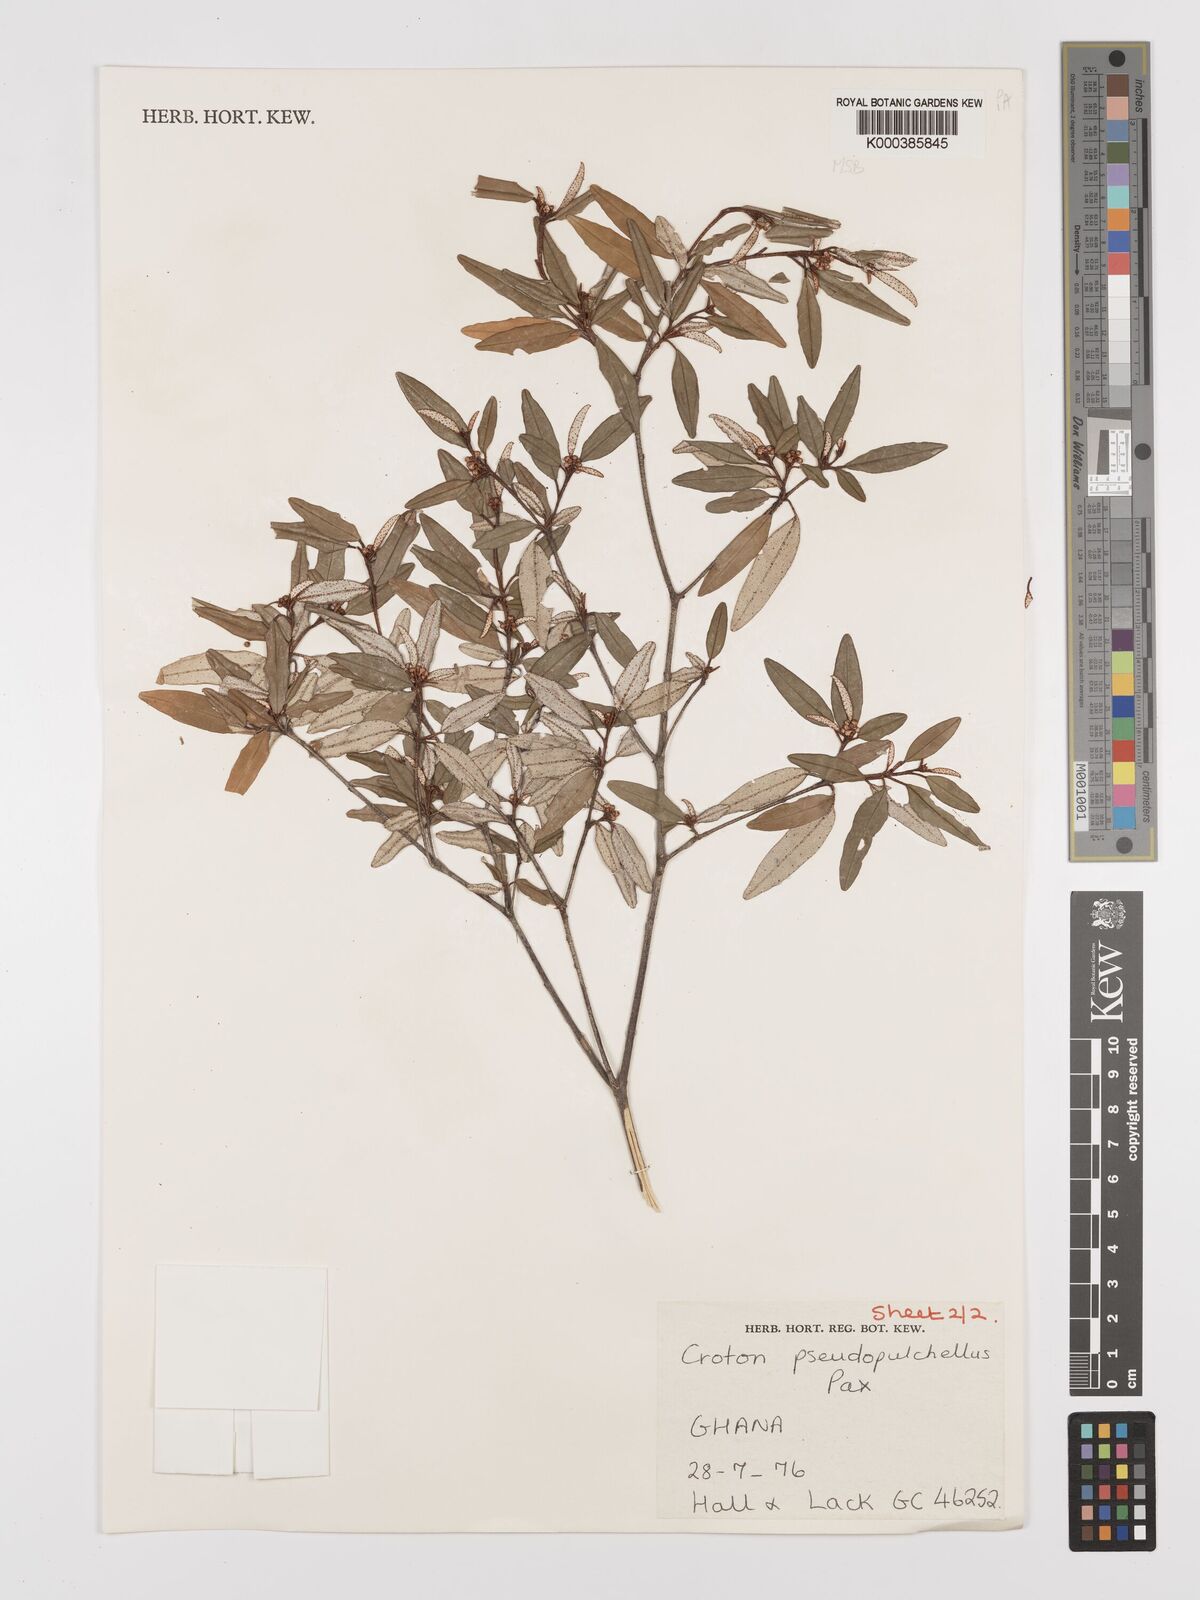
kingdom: Plantae
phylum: Tracheophyta
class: Magnoliopsida
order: Malpighiales
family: Euphorbiaceae
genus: Croton
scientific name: Croton pseudopulchellus
